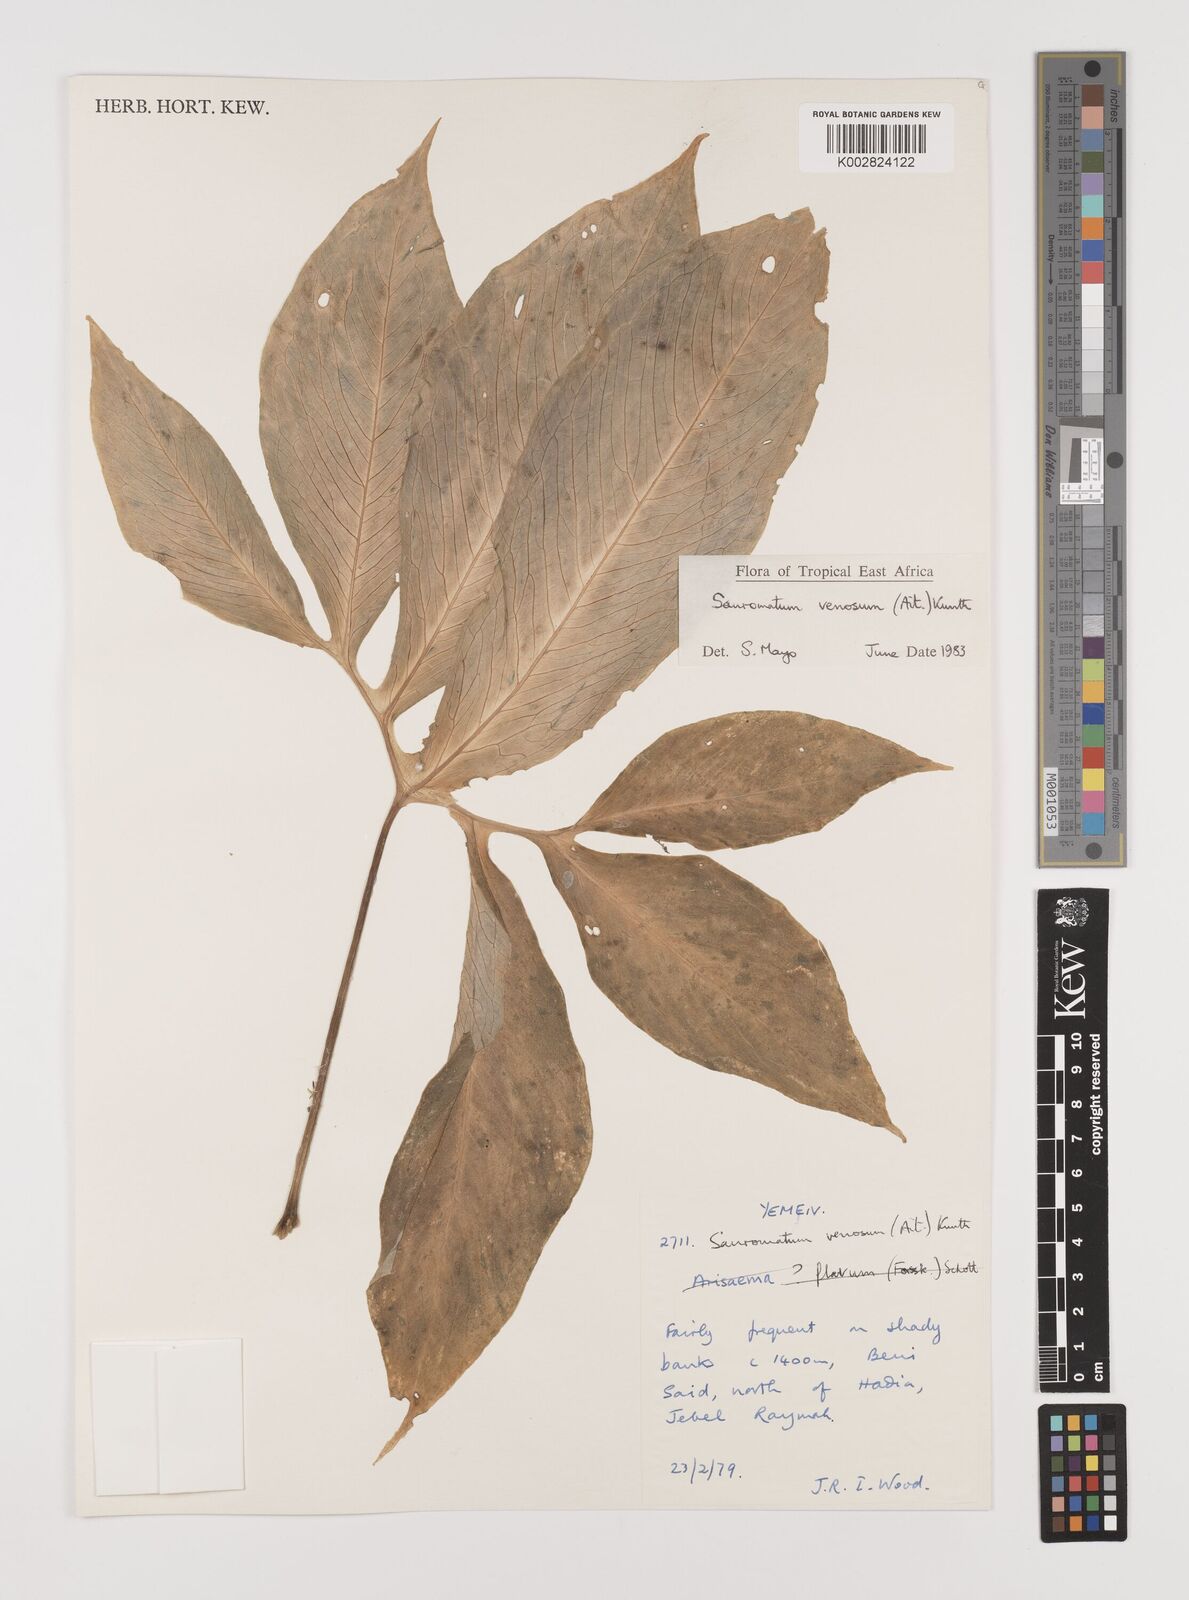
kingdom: Plantae
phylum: Tracheophyta
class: Liliopsida
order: Alismatales
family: Araceae
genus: Sauromatum
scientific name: Sauromatum venosum
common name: Voodoo lily
